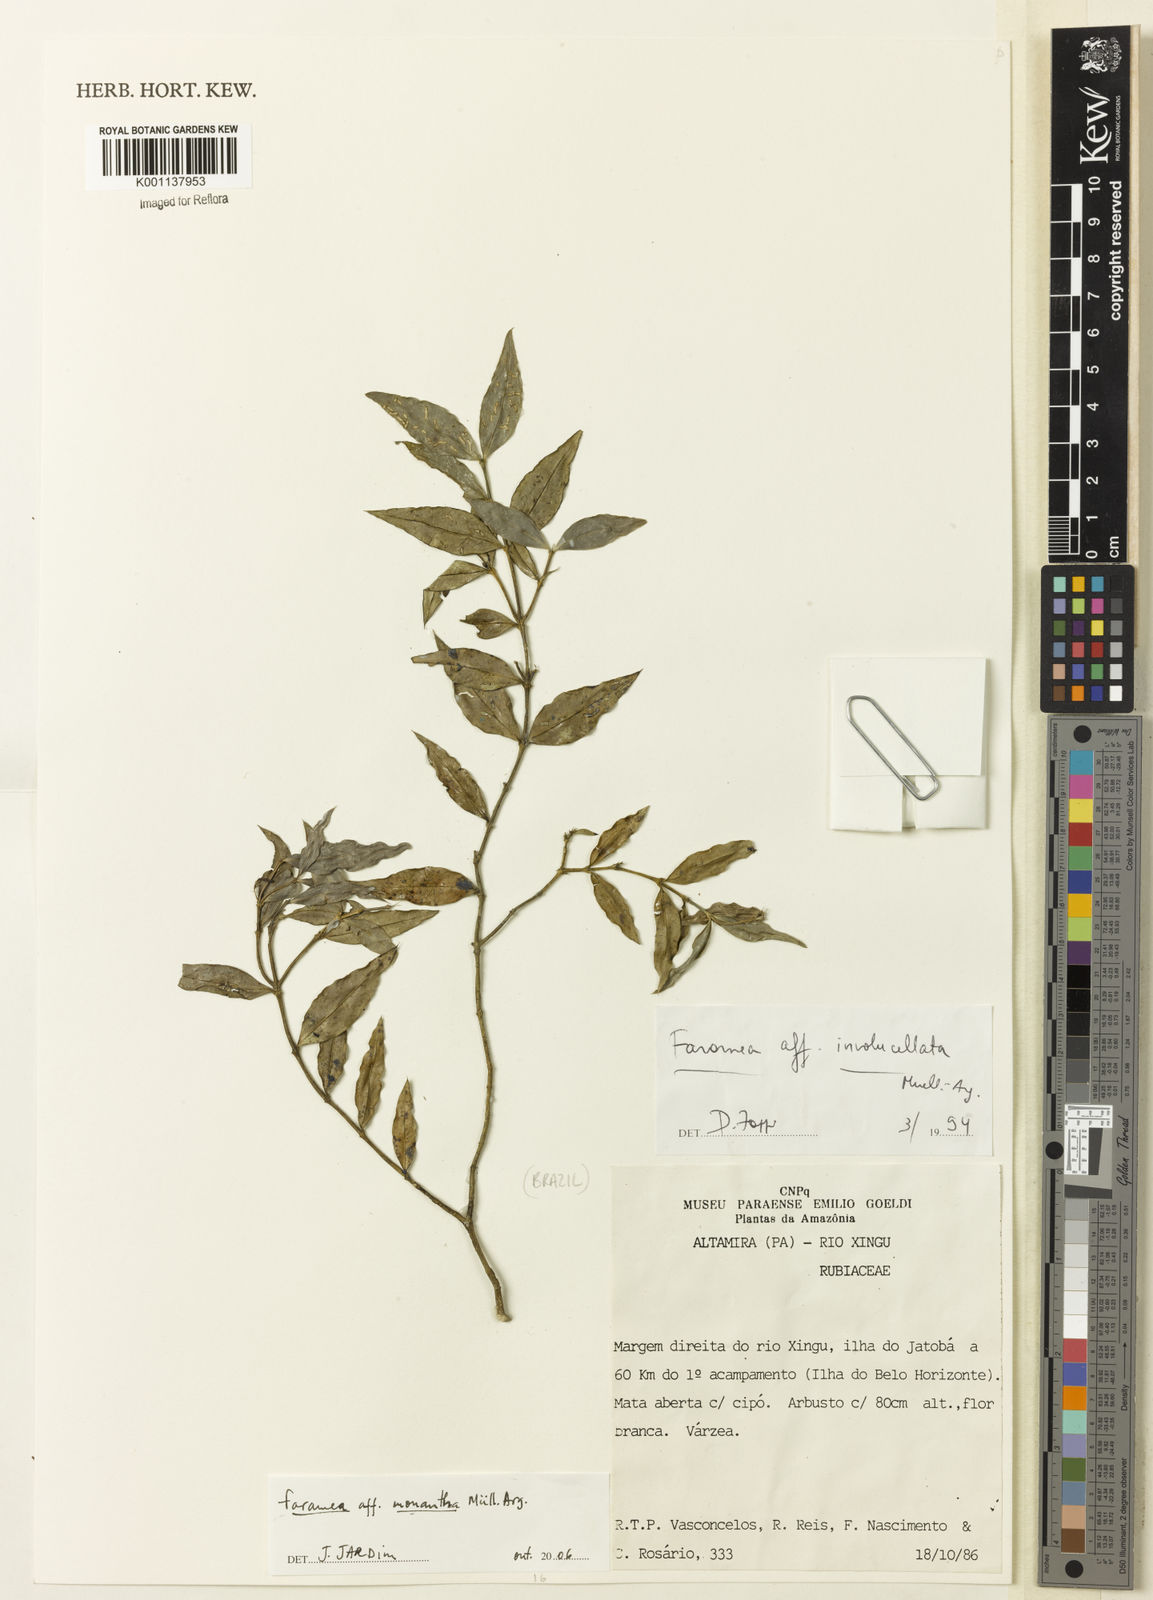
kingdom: Plantae
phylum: Tracheophyta
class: Magnoliopsida
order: Gentianales
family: Rubiaceae
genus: Faramea
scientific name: Faramea
